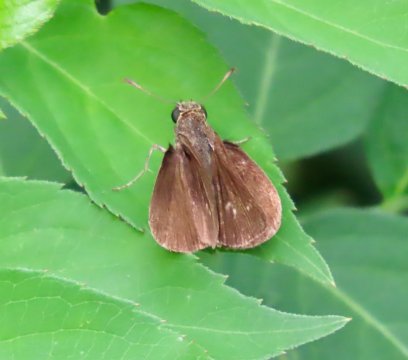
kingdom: Animalia
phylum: Arthropoda
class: Insecta
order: Lepidoptera
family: Hesperiidae
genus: Euphyes
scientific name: Euphyes vestris
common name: Dun Skipper
